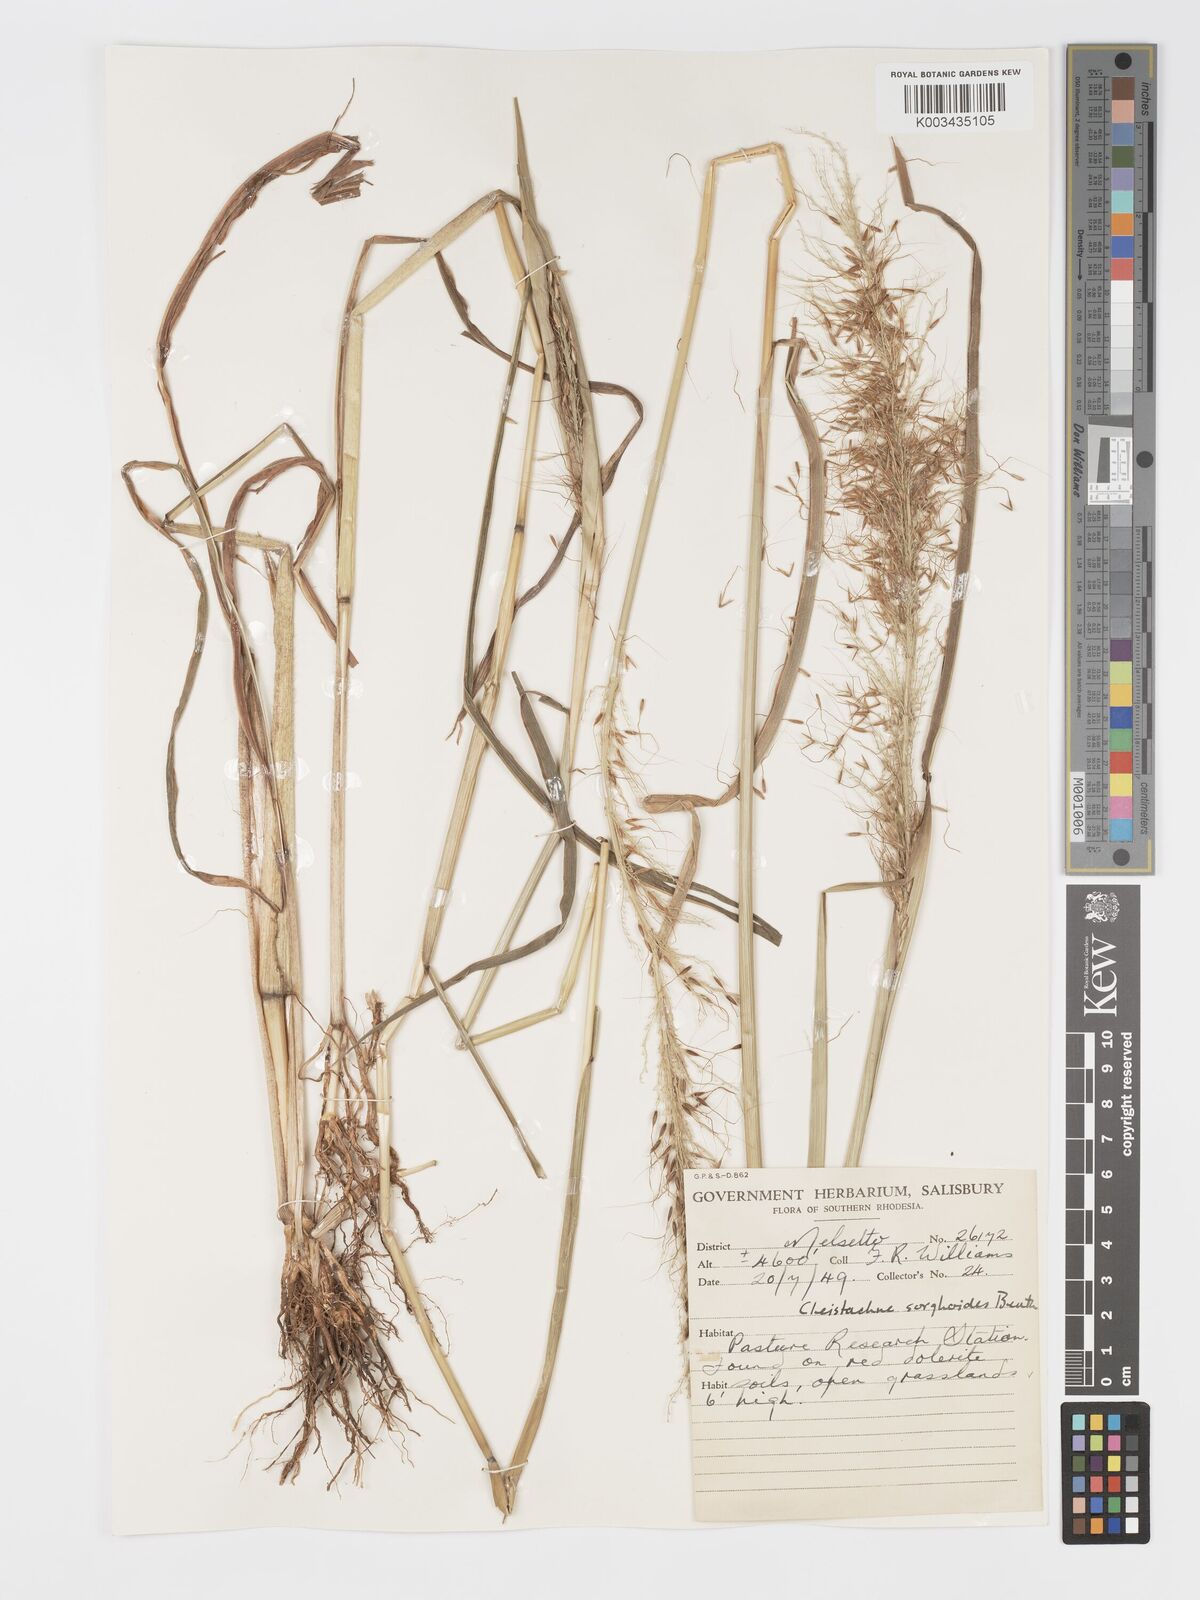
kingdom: Plantae
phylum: Tracheophyta
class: Liliopsida
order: Poales
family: Poaceae
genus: Cleistachne
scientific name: Cleistachne sorghoides
